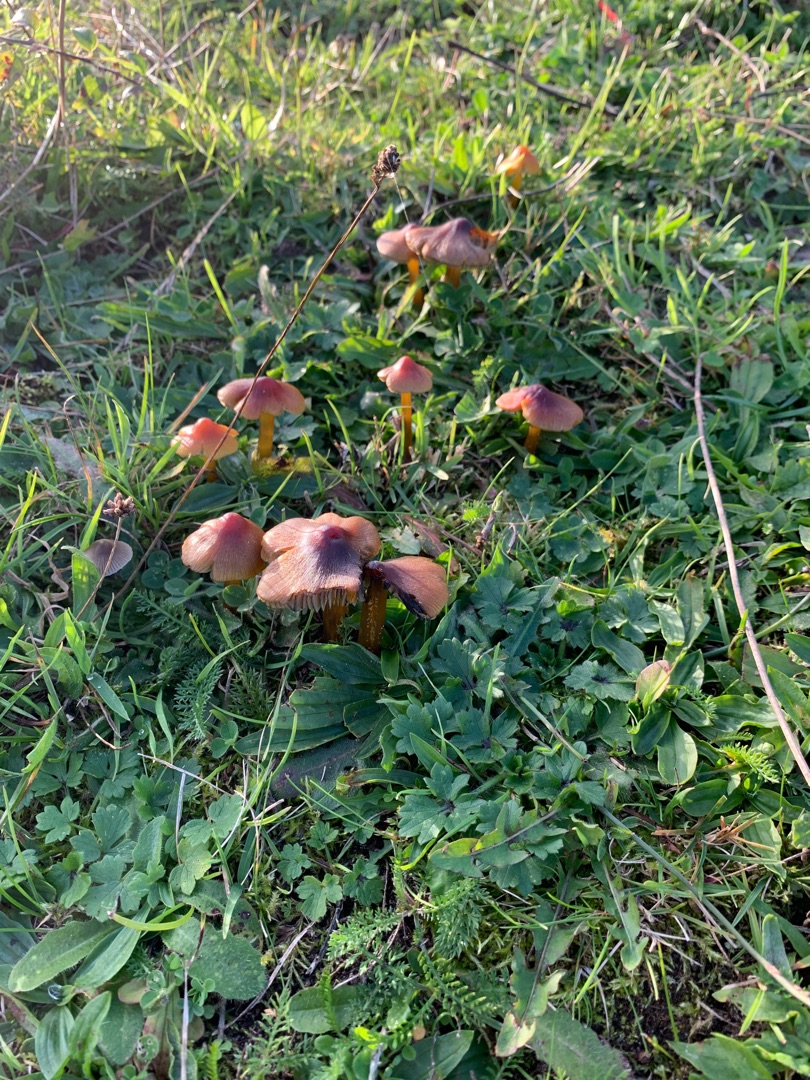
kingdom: Fungi
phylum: Basidiomycota
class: Agaricomycetes
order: Agaricales
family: Hygrophoraceae
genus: Hygrocybe
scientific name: Hygrocybe conica
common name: Kegle-vokshat
